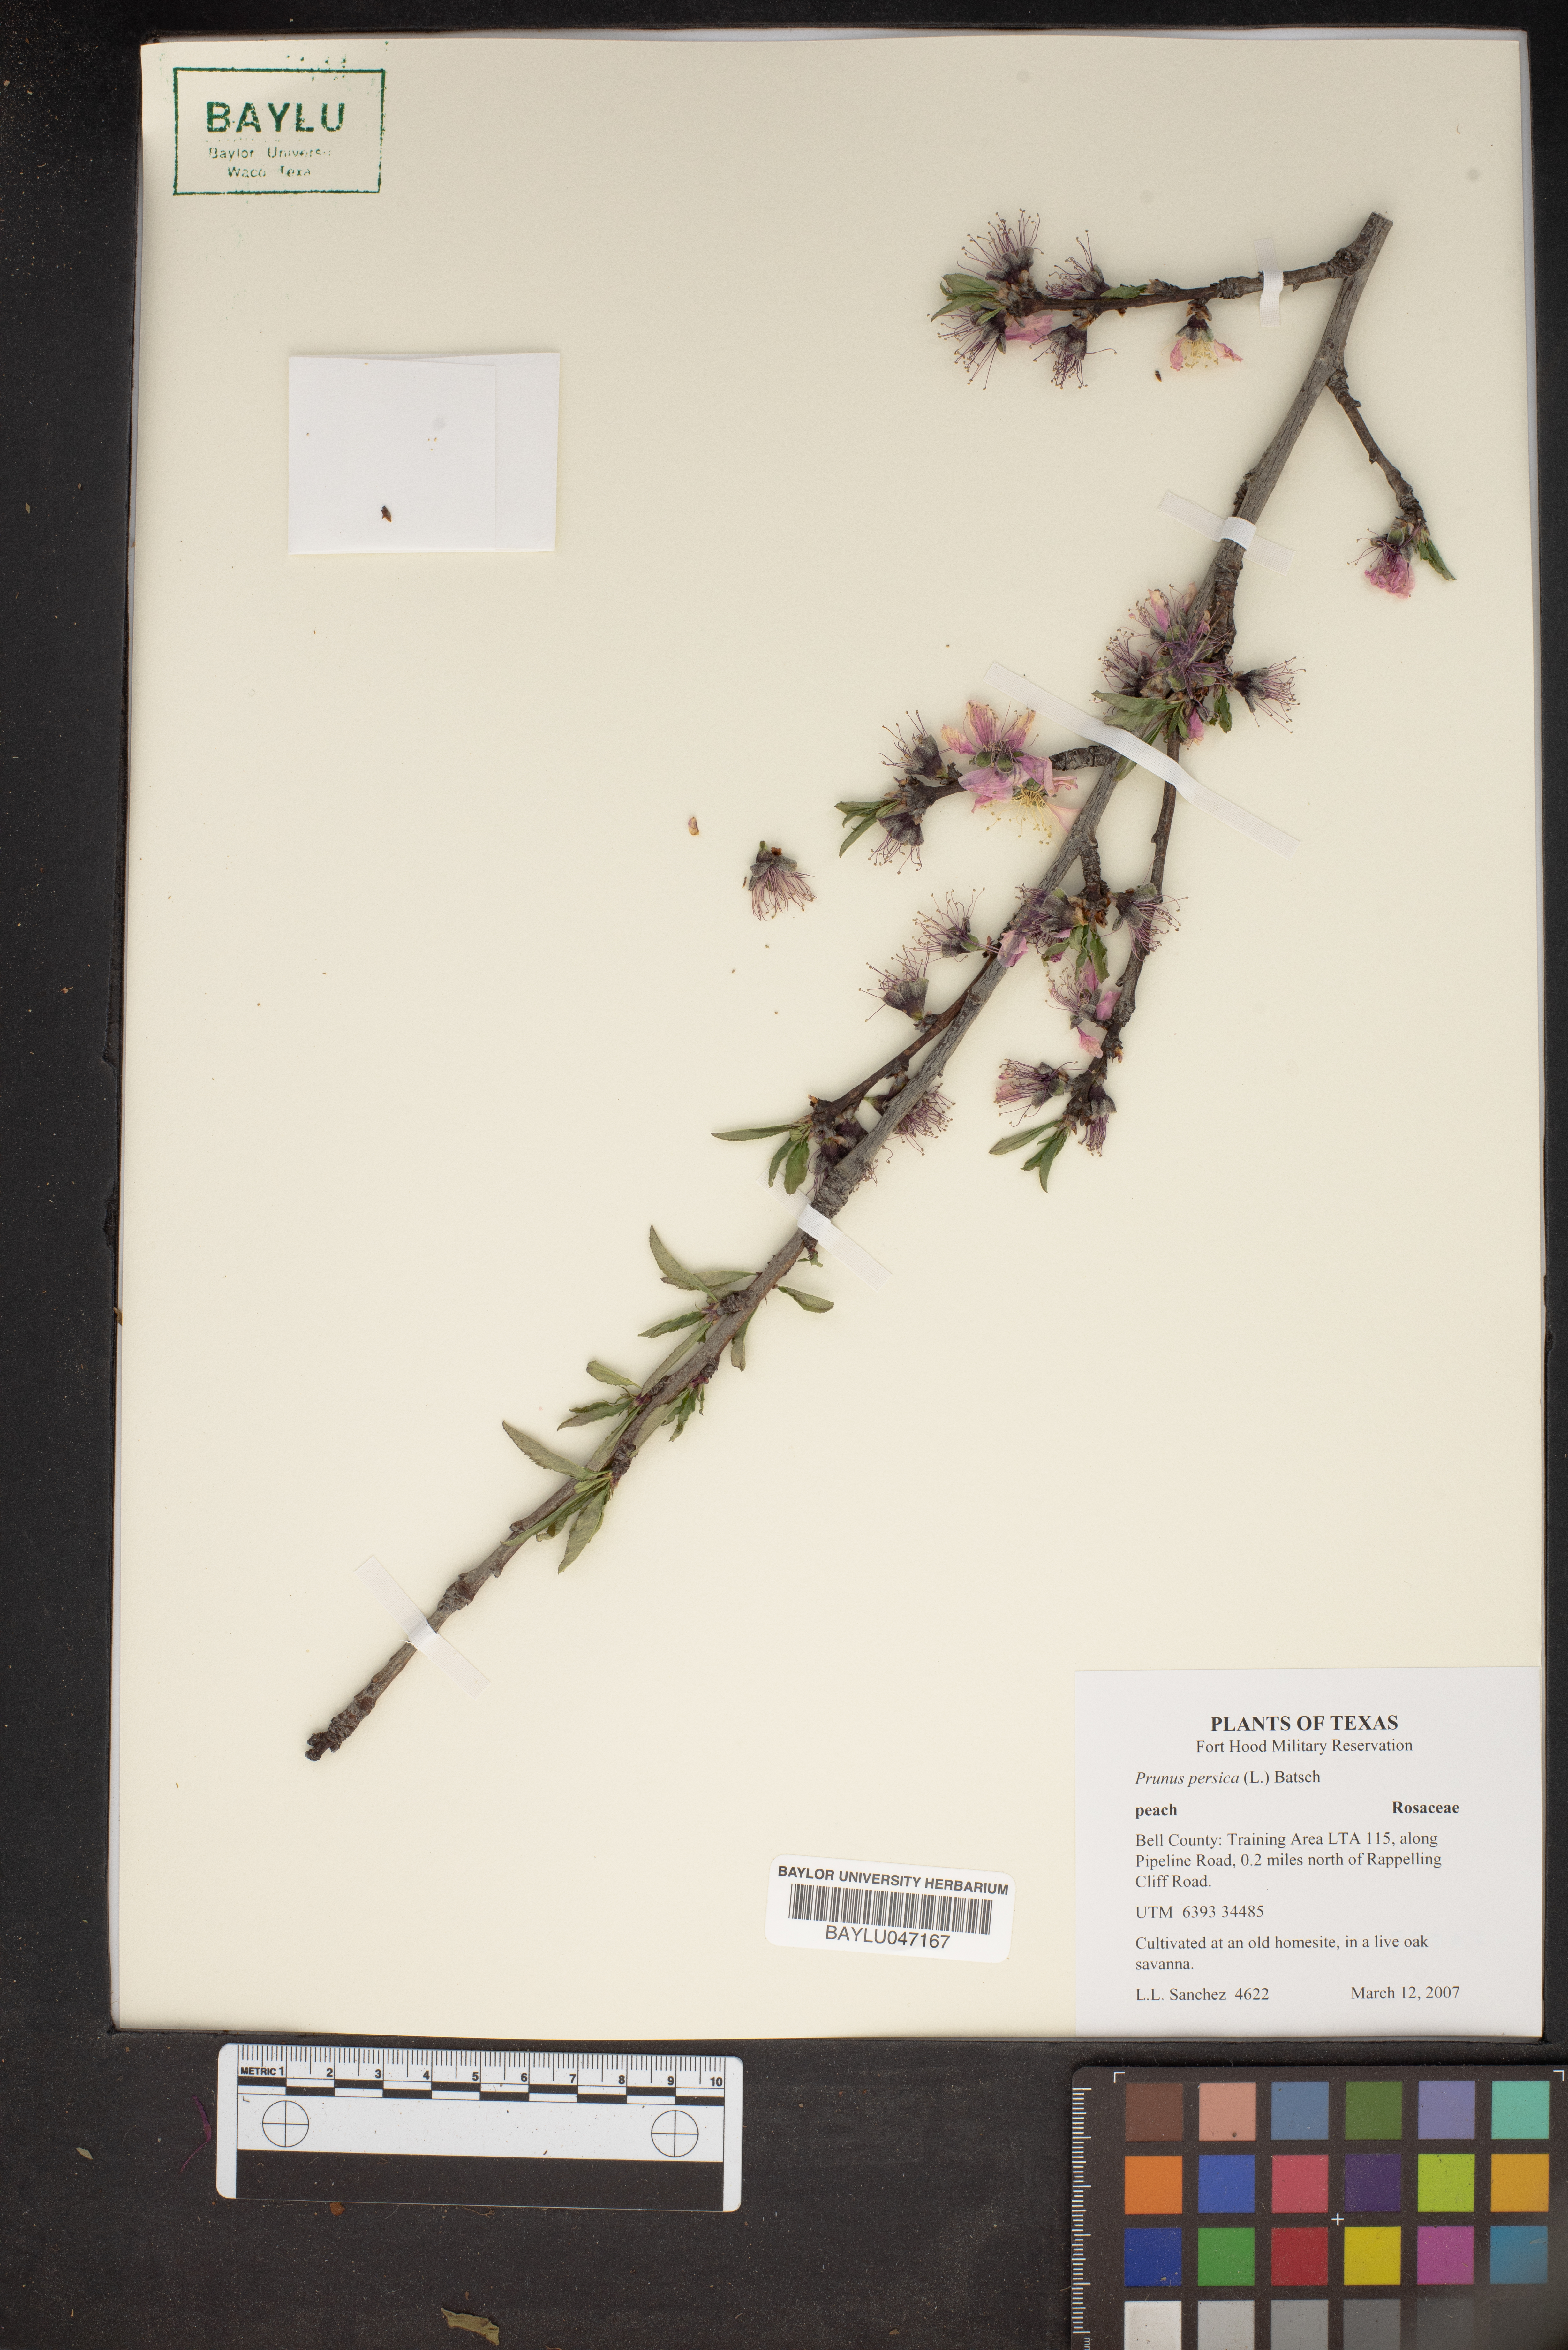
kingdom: Plantae
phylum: Tracheophyta
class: Magnoliopsida
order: Rosales
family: Rosaceae
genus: Prunus
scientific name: Prunus persica
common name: Peach
